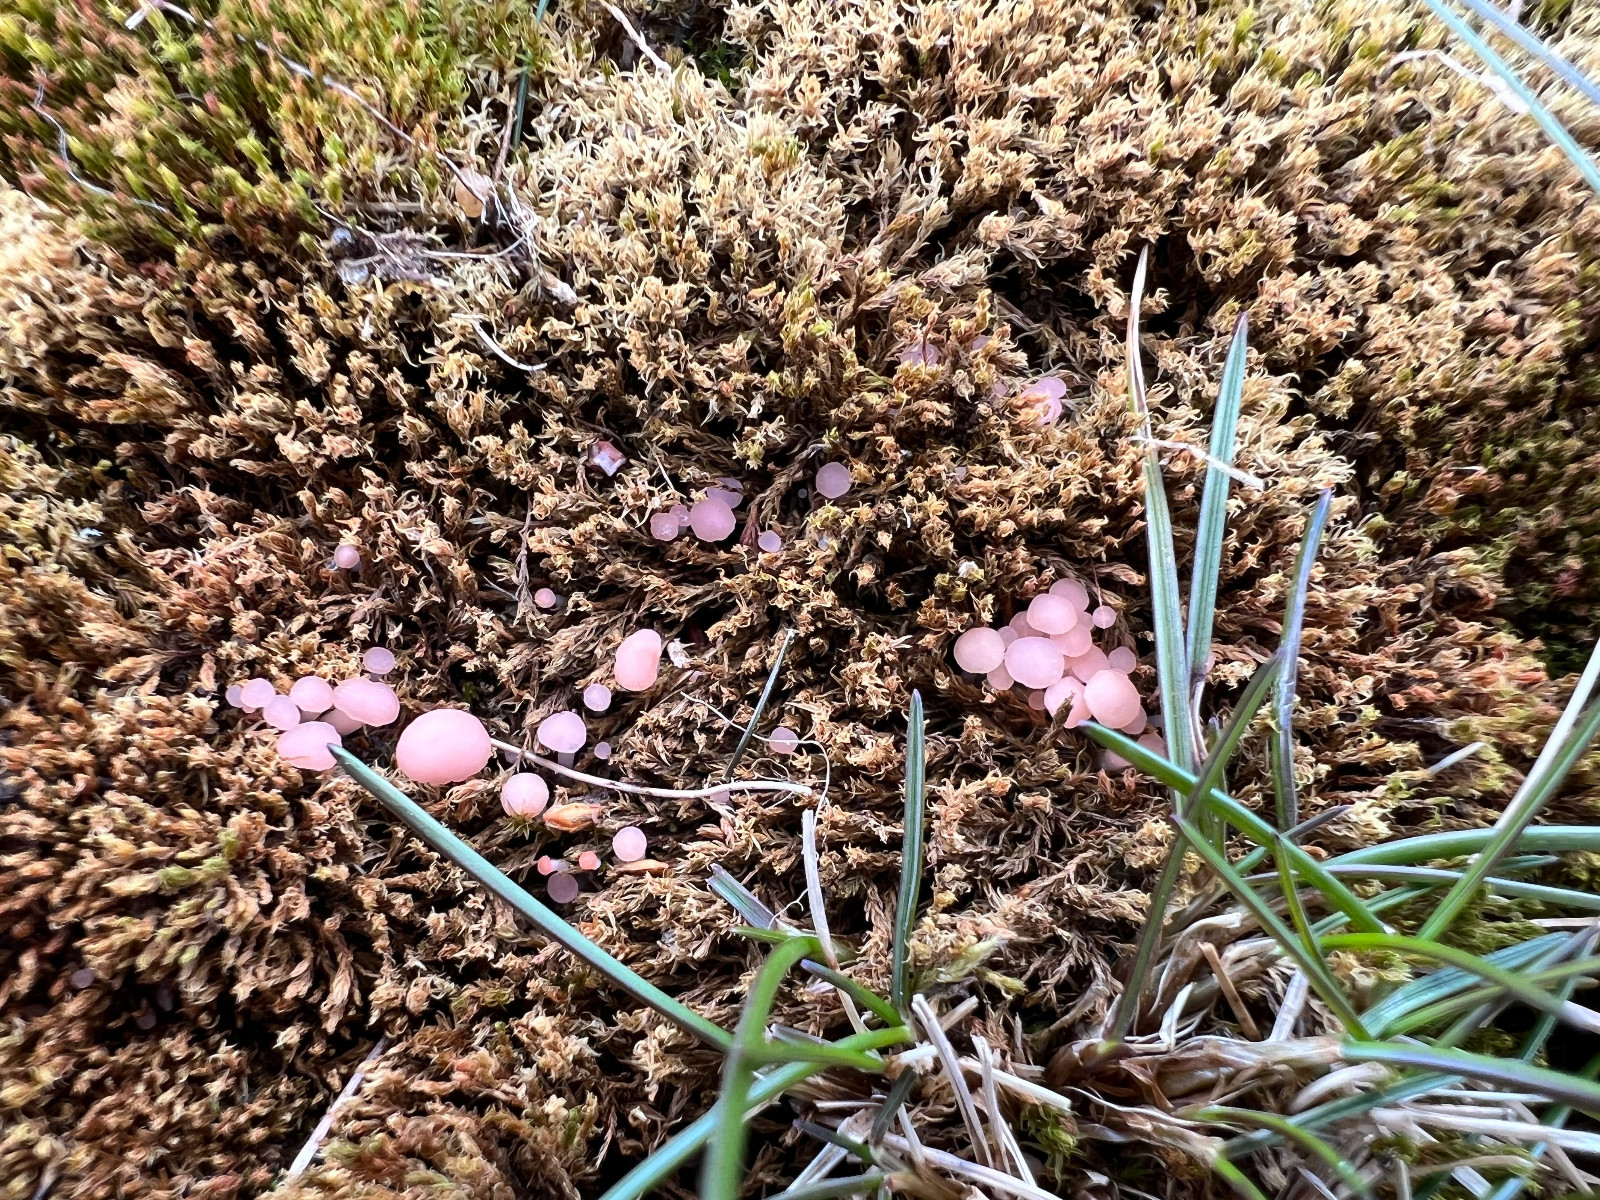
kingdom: Fungi
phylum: Ascomycota
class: Leotiomycetes
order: Helotiales
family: Hyaloscyphaceae
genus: Roseodiscus
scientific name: Roseodiscus formosus
